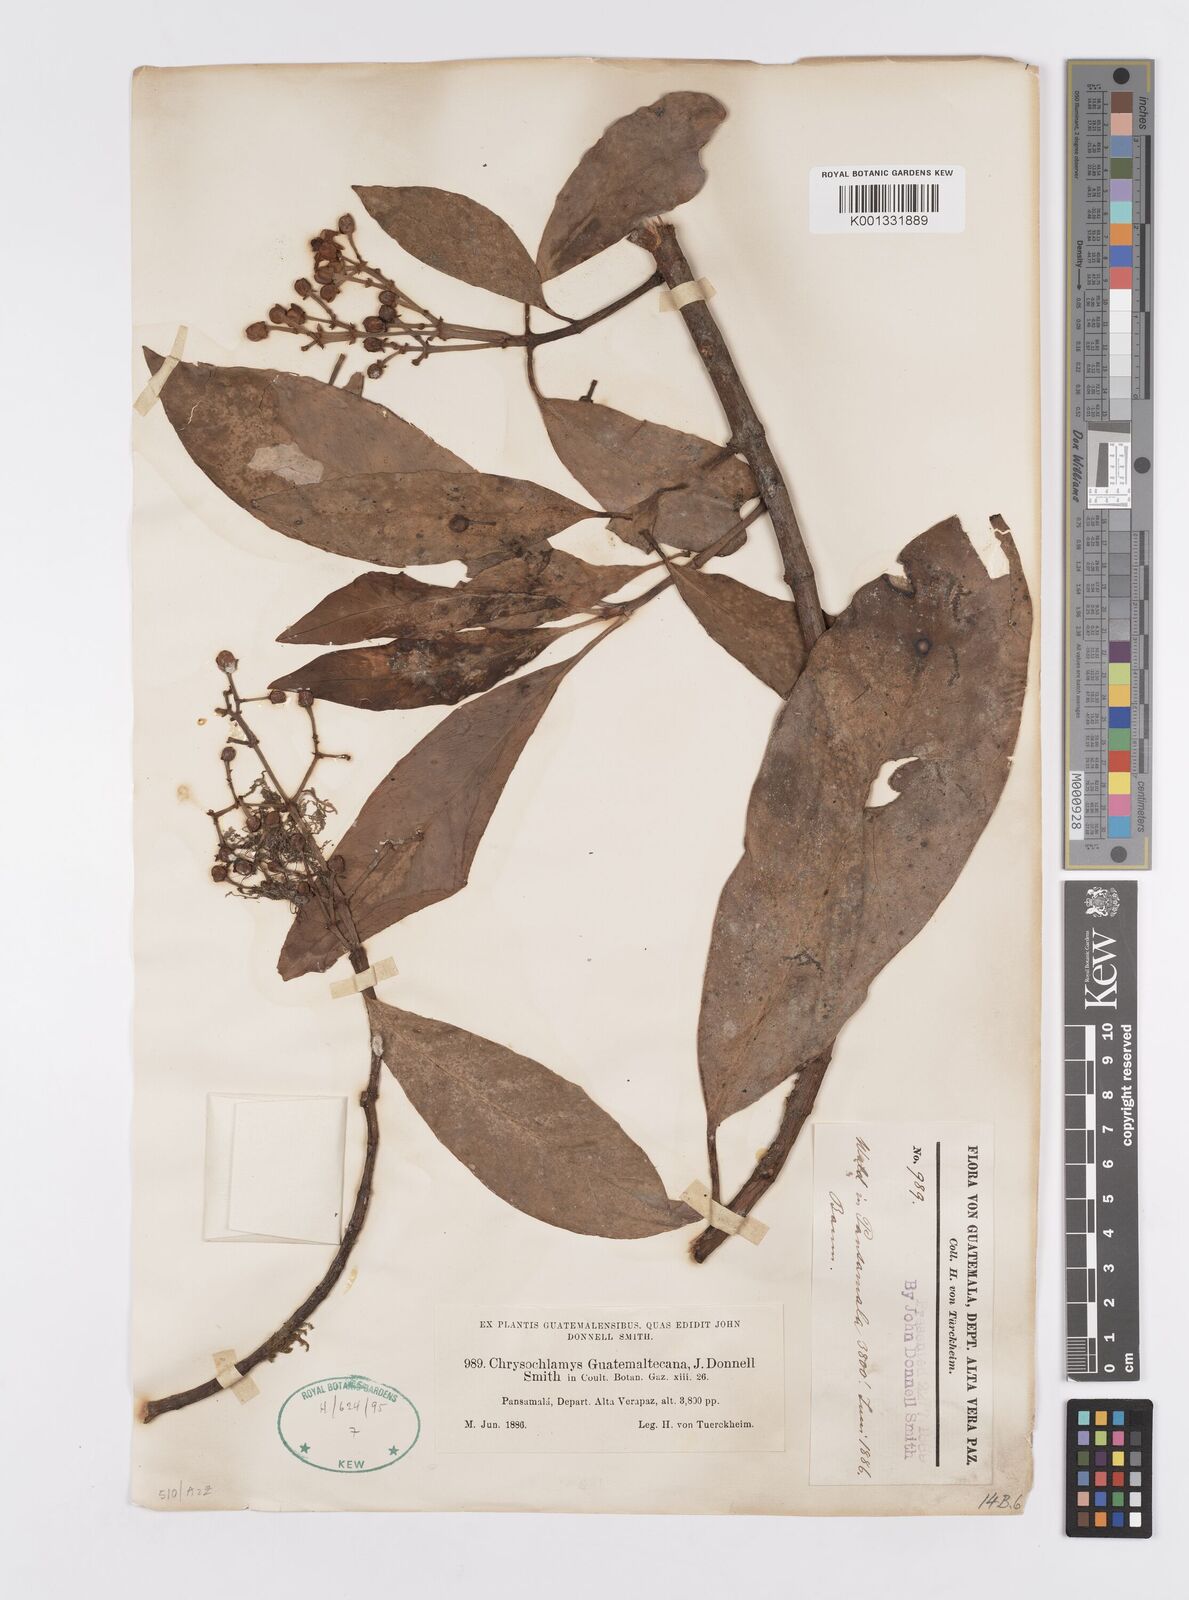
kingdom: Plantae
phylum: Tracheophyta
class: Magnoliopsida
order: Malpighiales
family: Clusiaceae
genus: Chrysochlamys
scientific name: Chrysochlamys guatemaltecana
